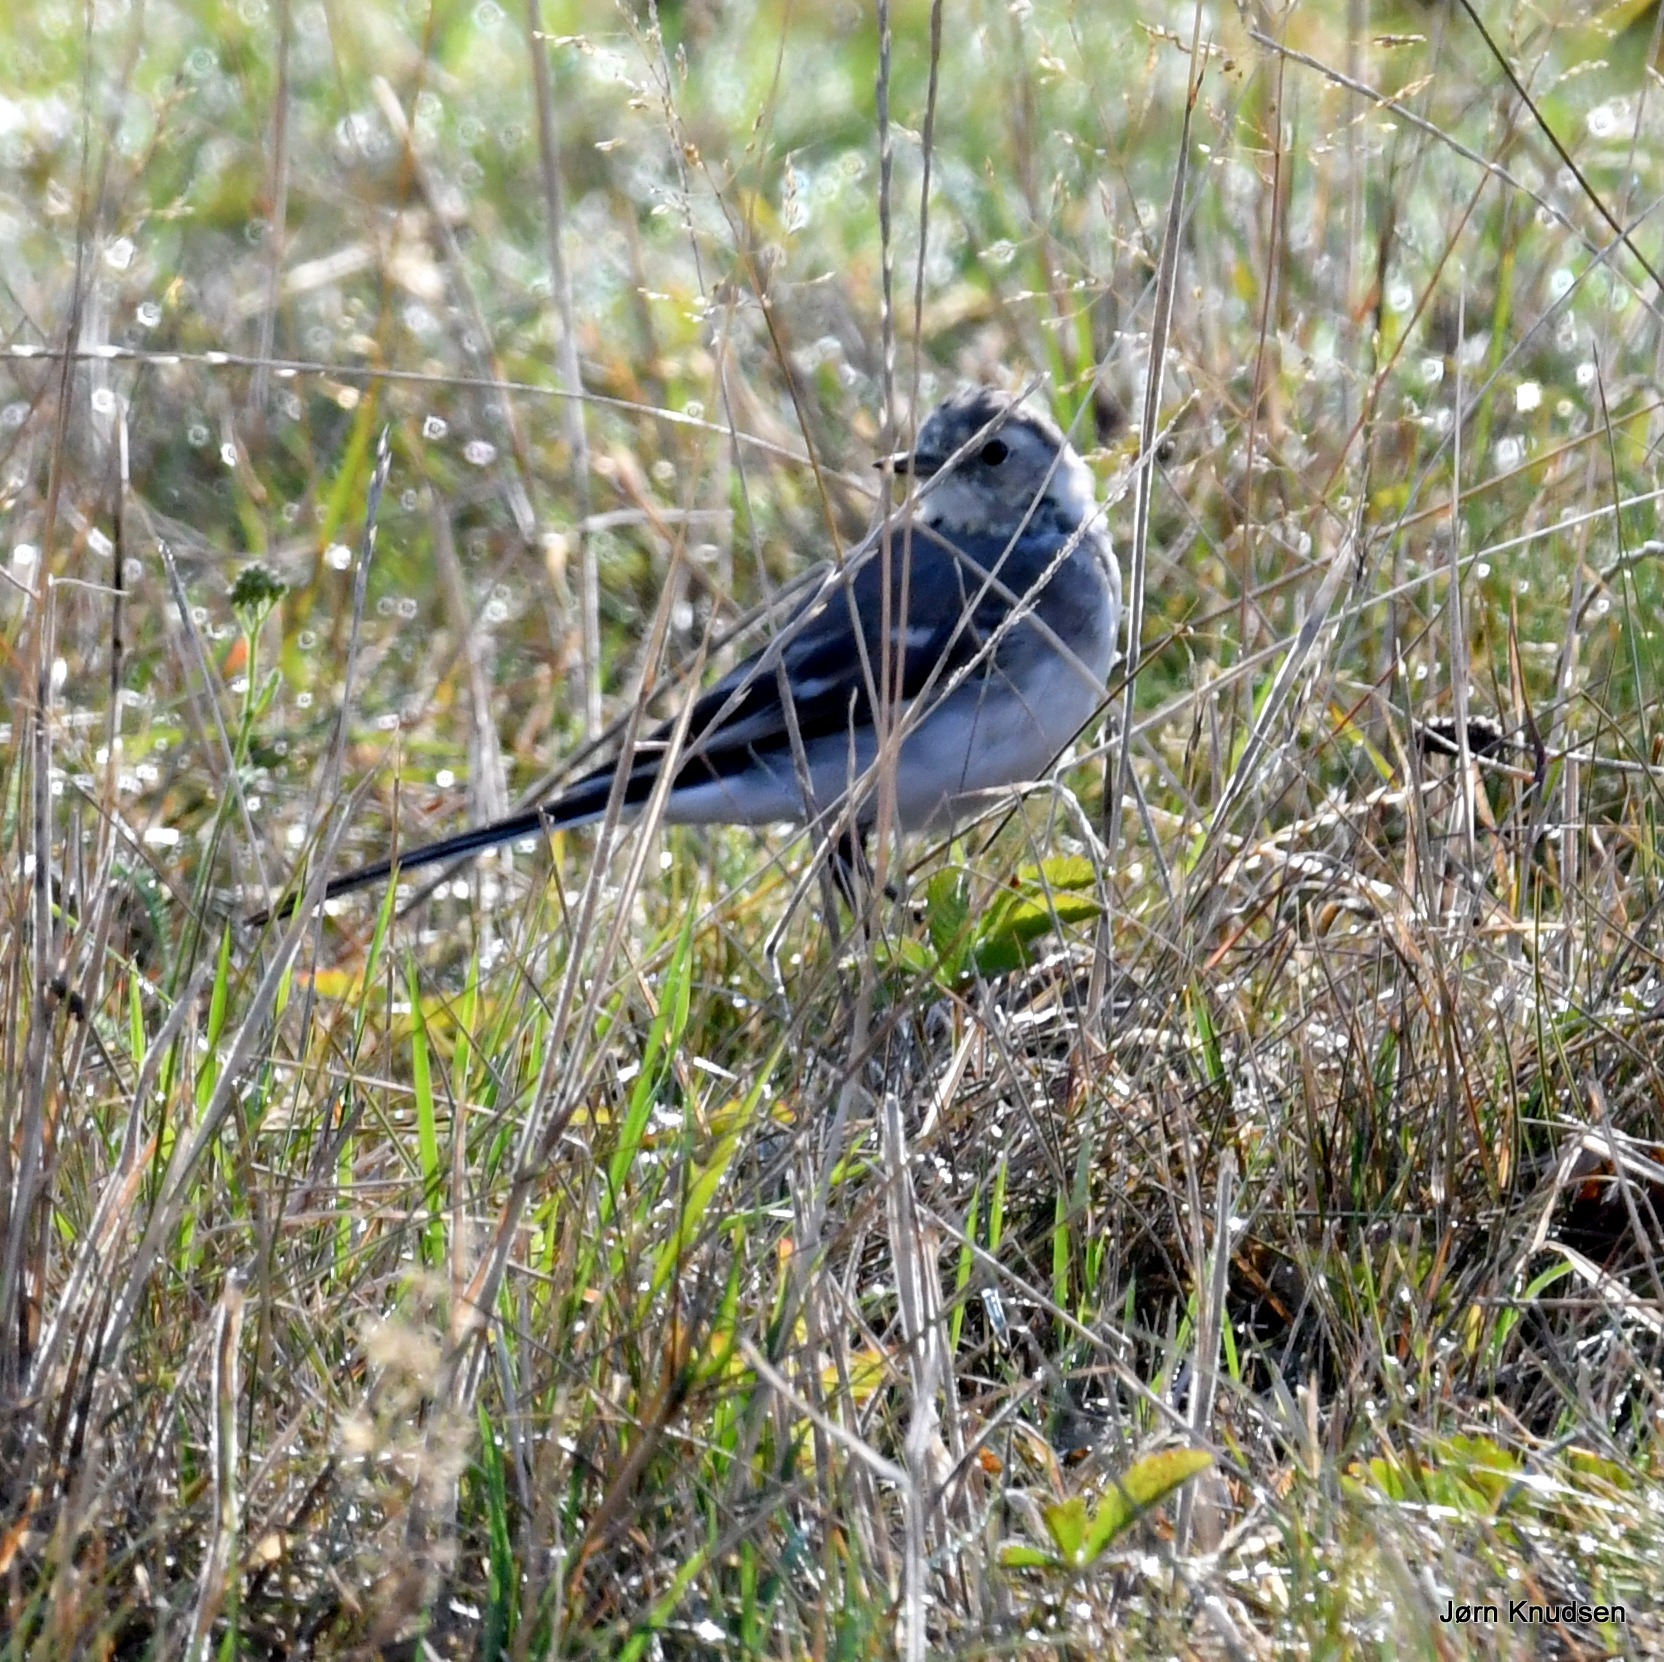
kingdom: Animalia
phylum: Chordata
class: Aves
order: Passeriformes
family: Motacillidae
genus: Motacilla
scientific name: Motacilla alba
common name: Hvid vipstjert
